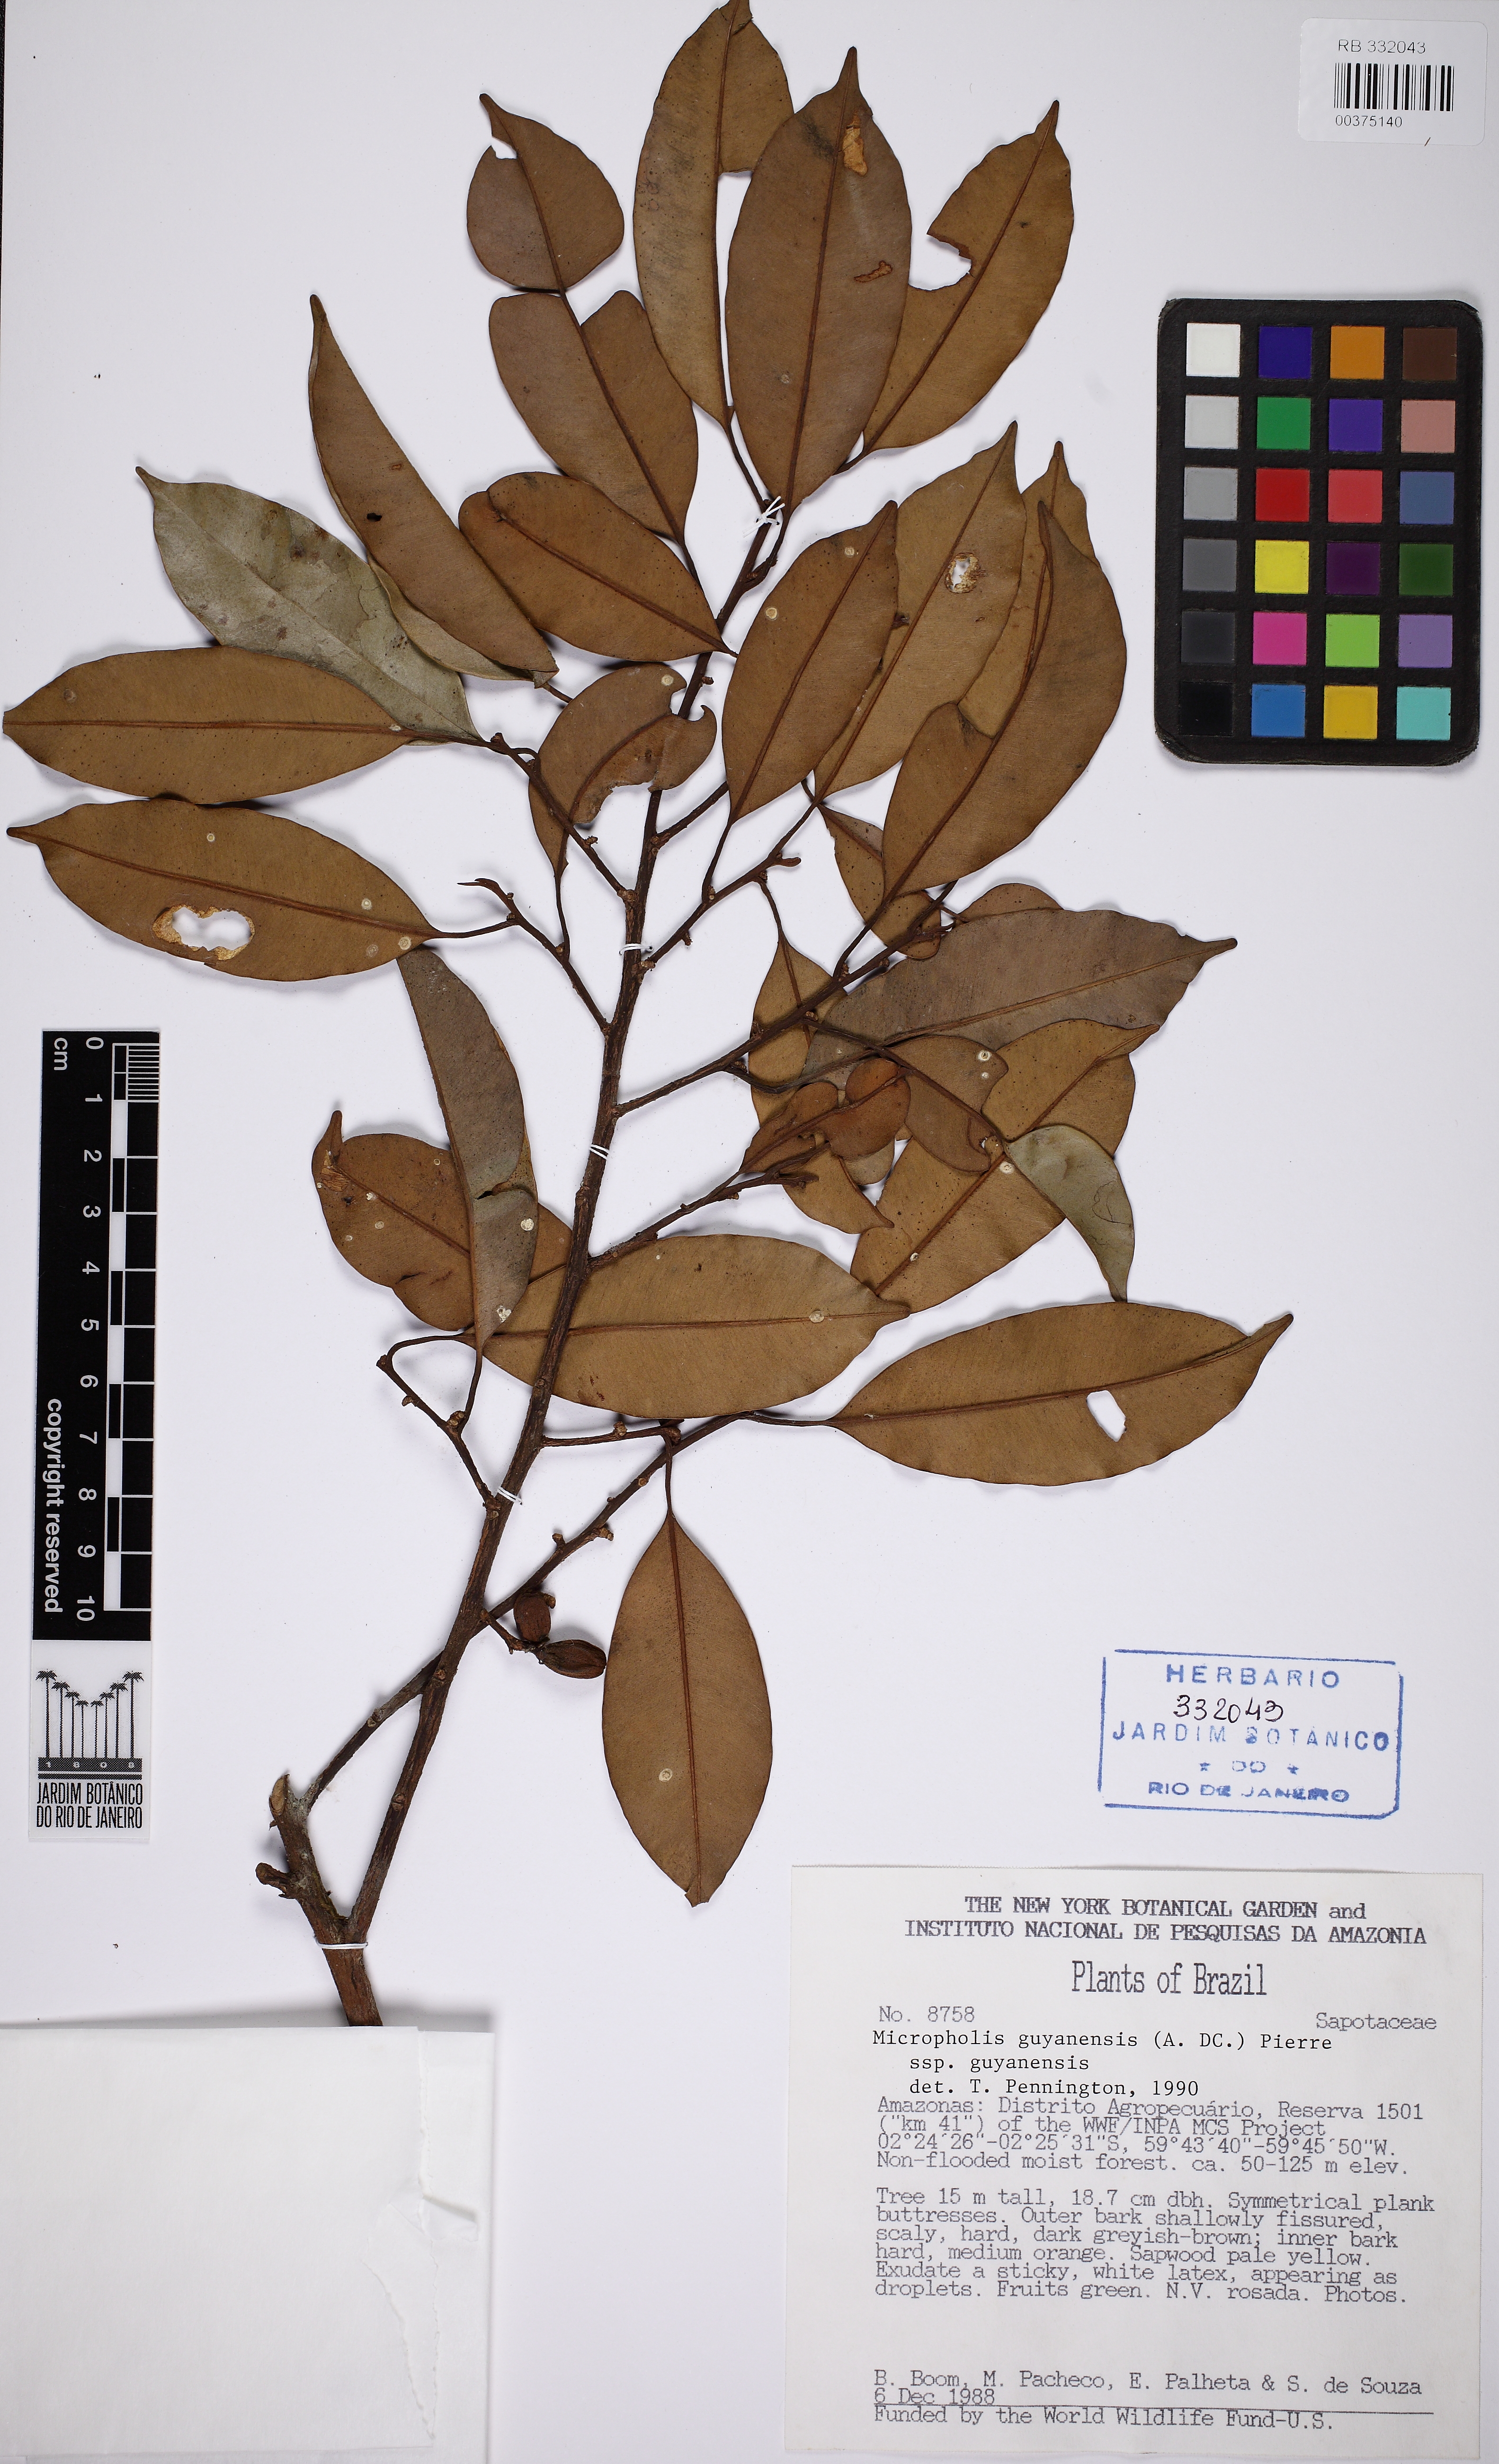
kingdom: Plantae
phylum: Tracheophyta
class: Magnoliopsida
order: Ericales
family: Sapotaceae
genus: Micropholis
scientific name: Micropholis guyanensis
